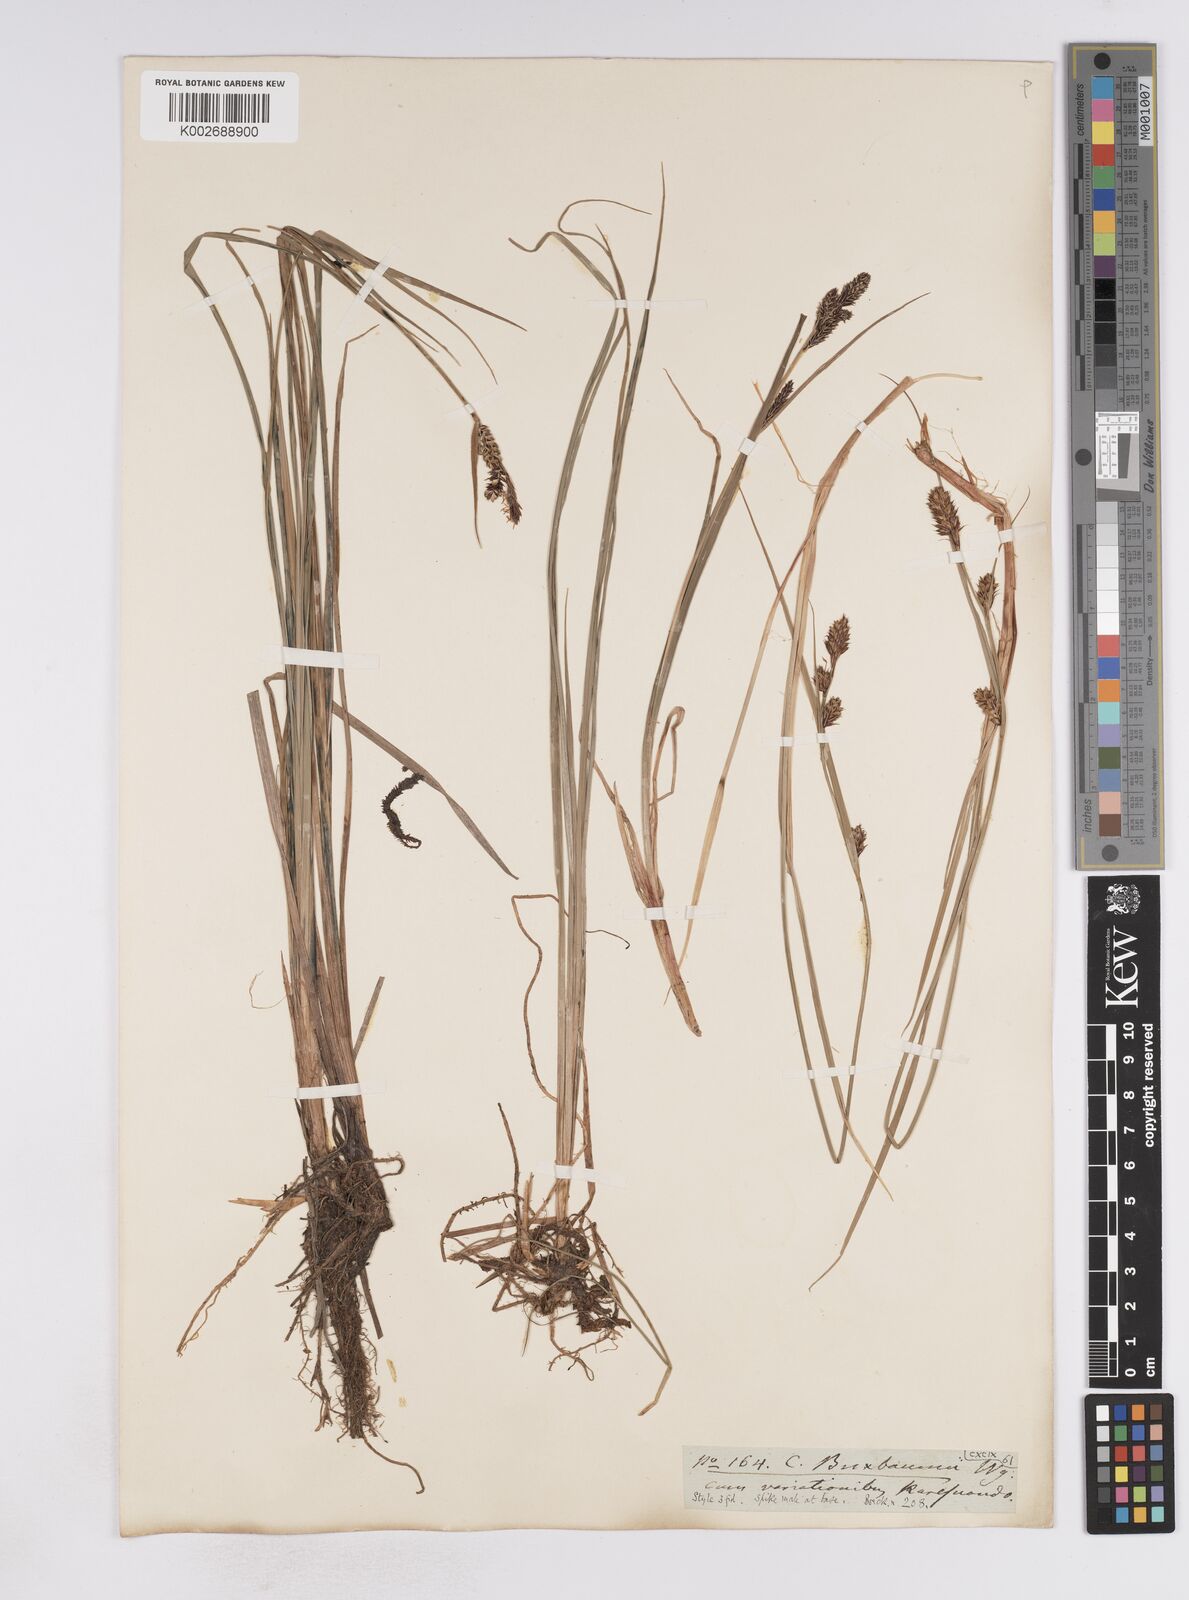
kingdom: Plantae
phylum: Tracheophyta
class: Liliopsida
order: Poales
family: Cyperaceae
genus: Carex
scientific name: Carex buxbaumii
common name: Club sedge
